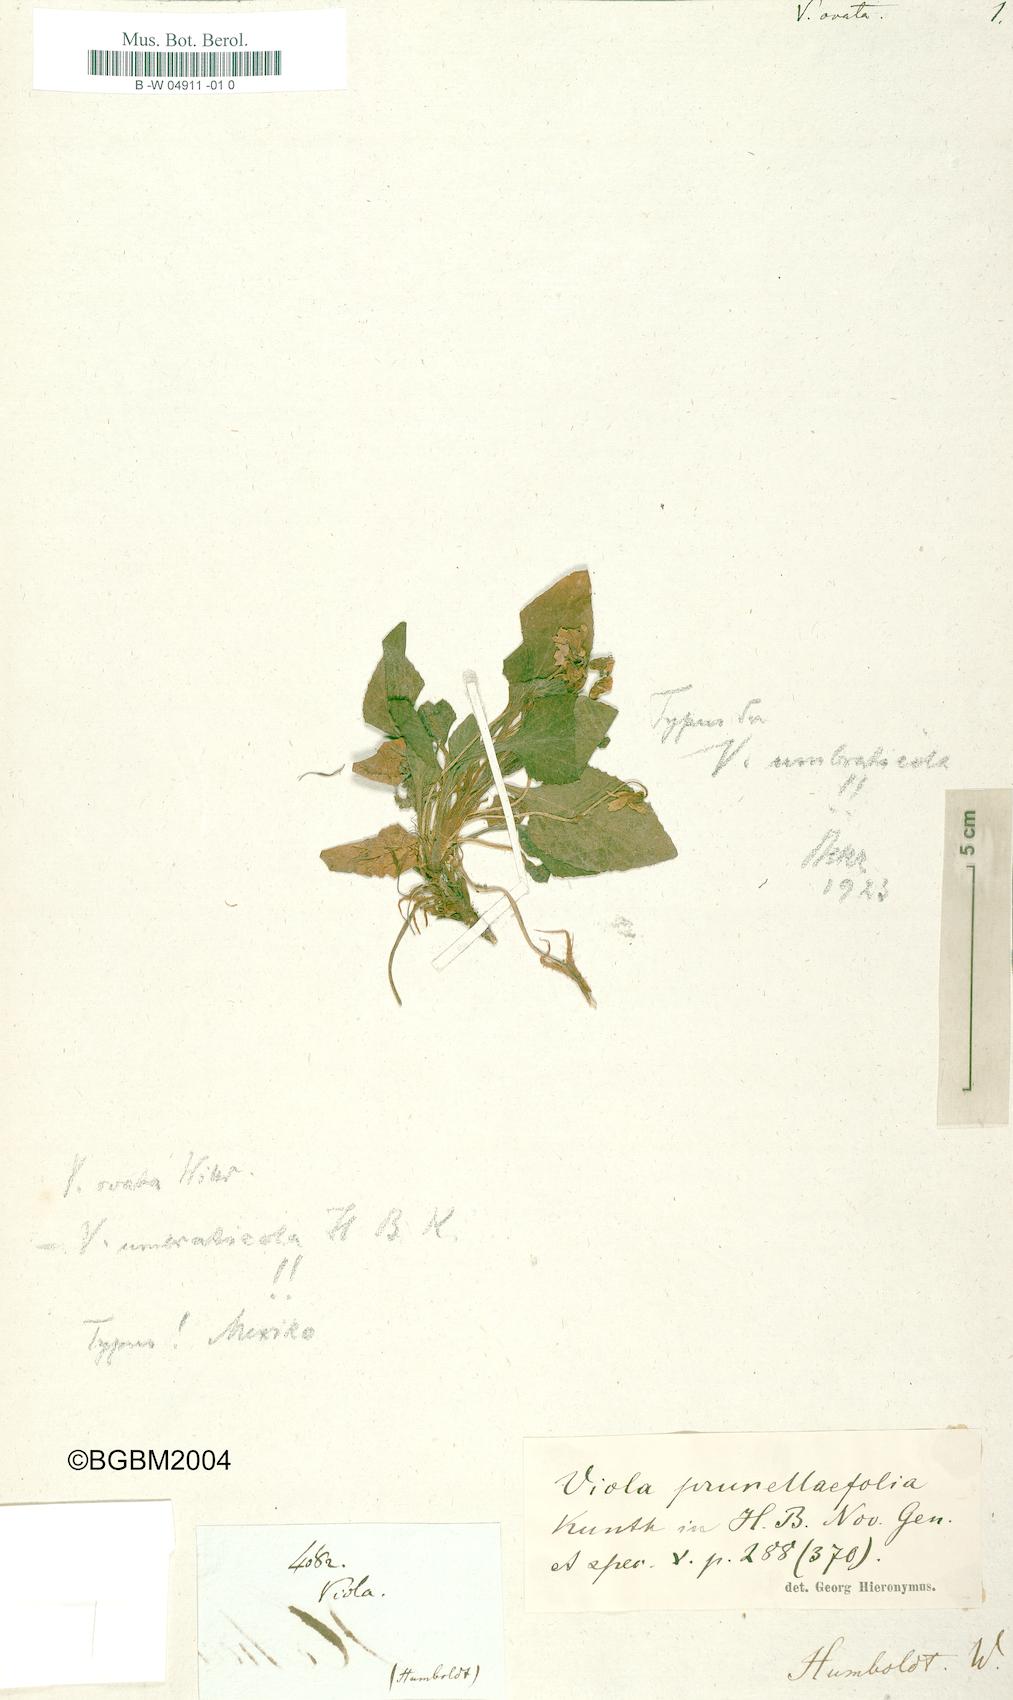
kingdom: Plantae
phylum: Tracheophyta
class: Magnoliopsida
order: Malpighiales
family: Violaceae
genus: Viola
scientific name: Viola ovata
